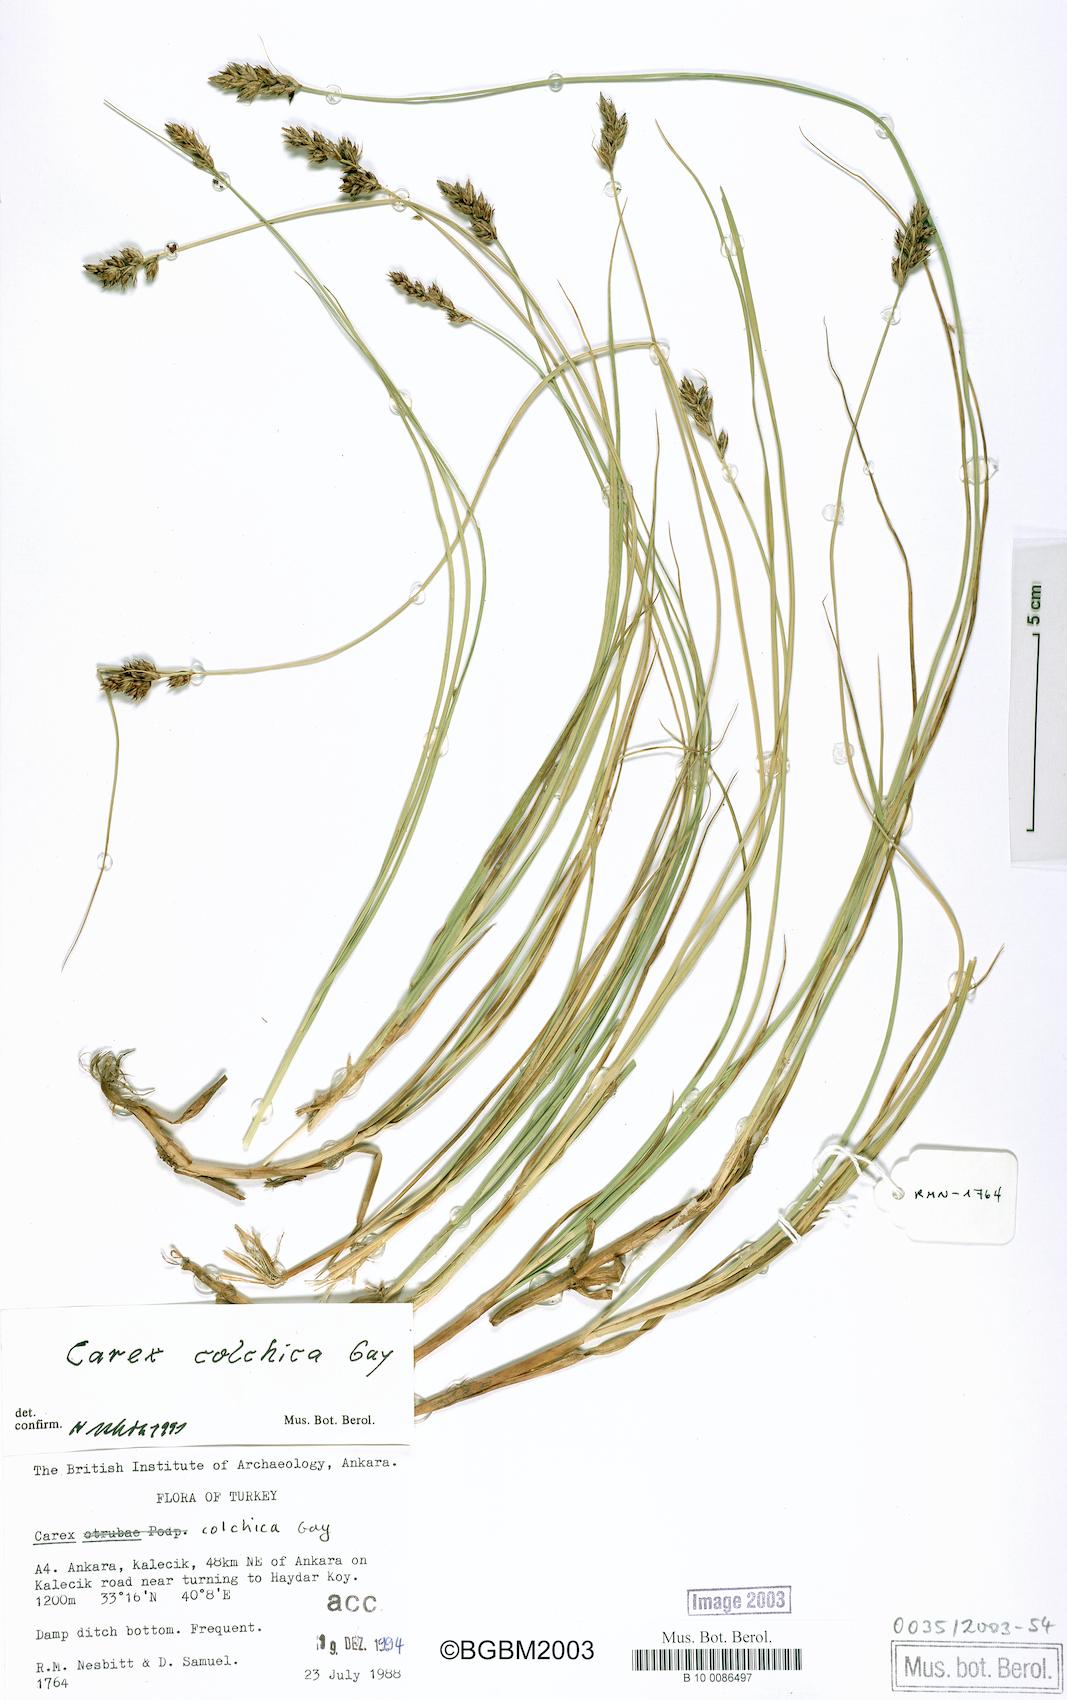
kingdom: Plantae
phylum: Tracheophyta
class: Liliopsida
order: Poales
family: Cyperaceae
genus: Carex
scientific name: Carex divisa
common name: Divided sedge
